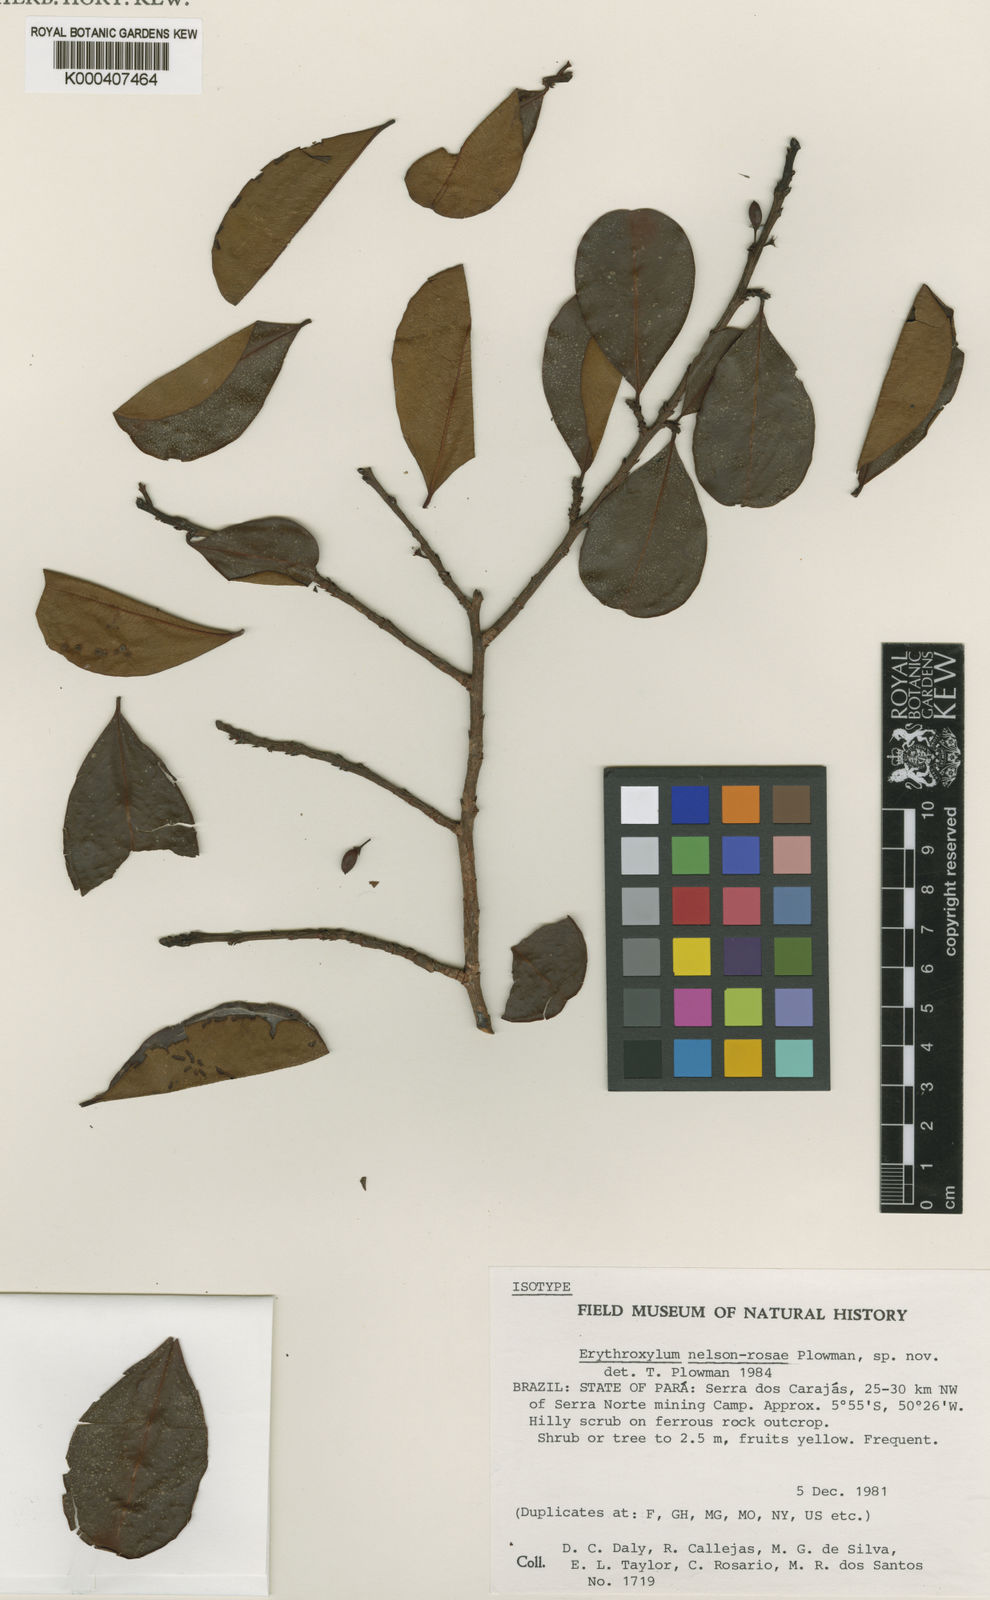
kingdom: Plantae
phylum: Tracheophyta
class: Magnoliopsida
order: Malpighiales
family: Erythroxylaceae
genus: Erythroxylum
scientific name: Erythroxylum nelson-rosae
